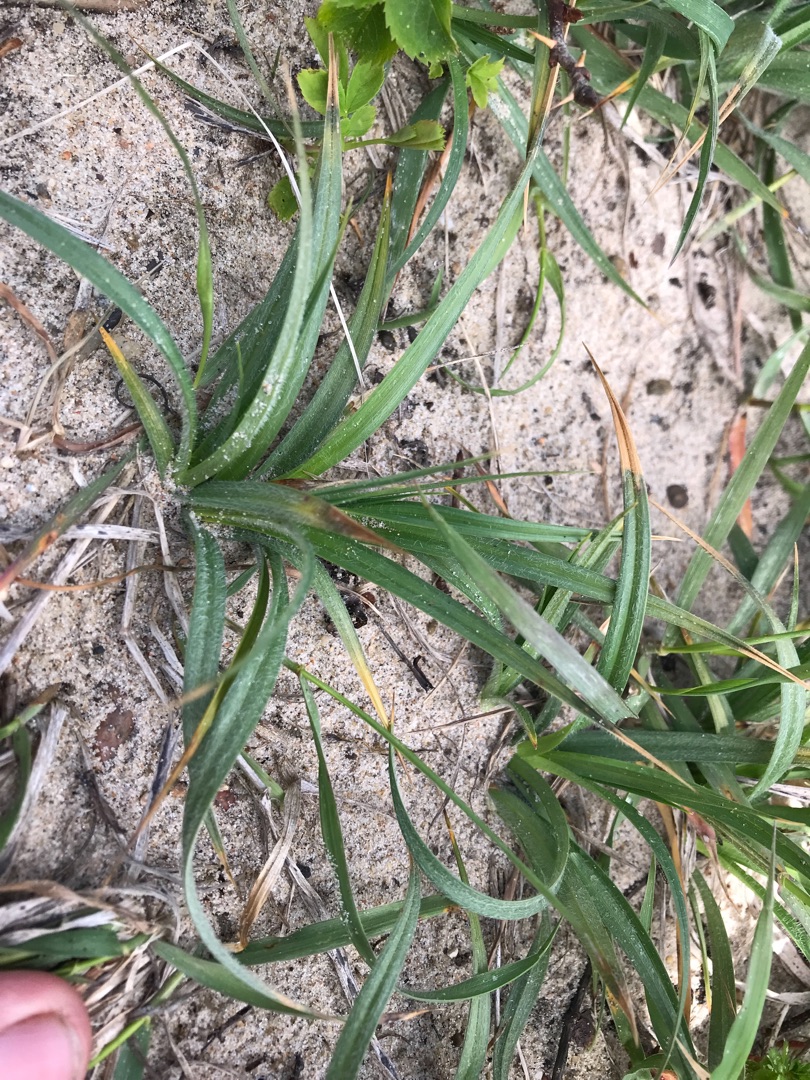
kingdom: Plantae
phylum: Tracheophyta
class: Liliopsida
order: Poales
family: Cyperaceae
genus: Carex
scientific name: Carex hirta
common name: Håret star
